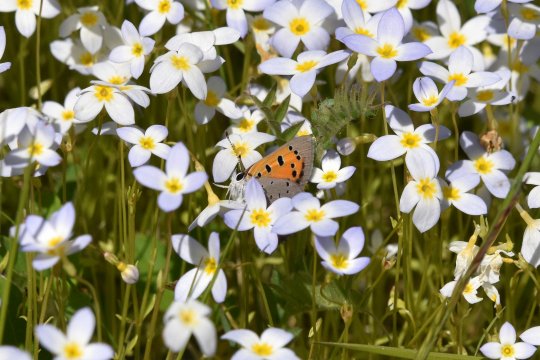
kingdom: Animalia
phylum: Arthropoda
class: Insecta
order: Lepidoptera
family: Lycaenidae
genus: Lycaena
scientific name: Lycaena phlaeas
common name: American Copper
